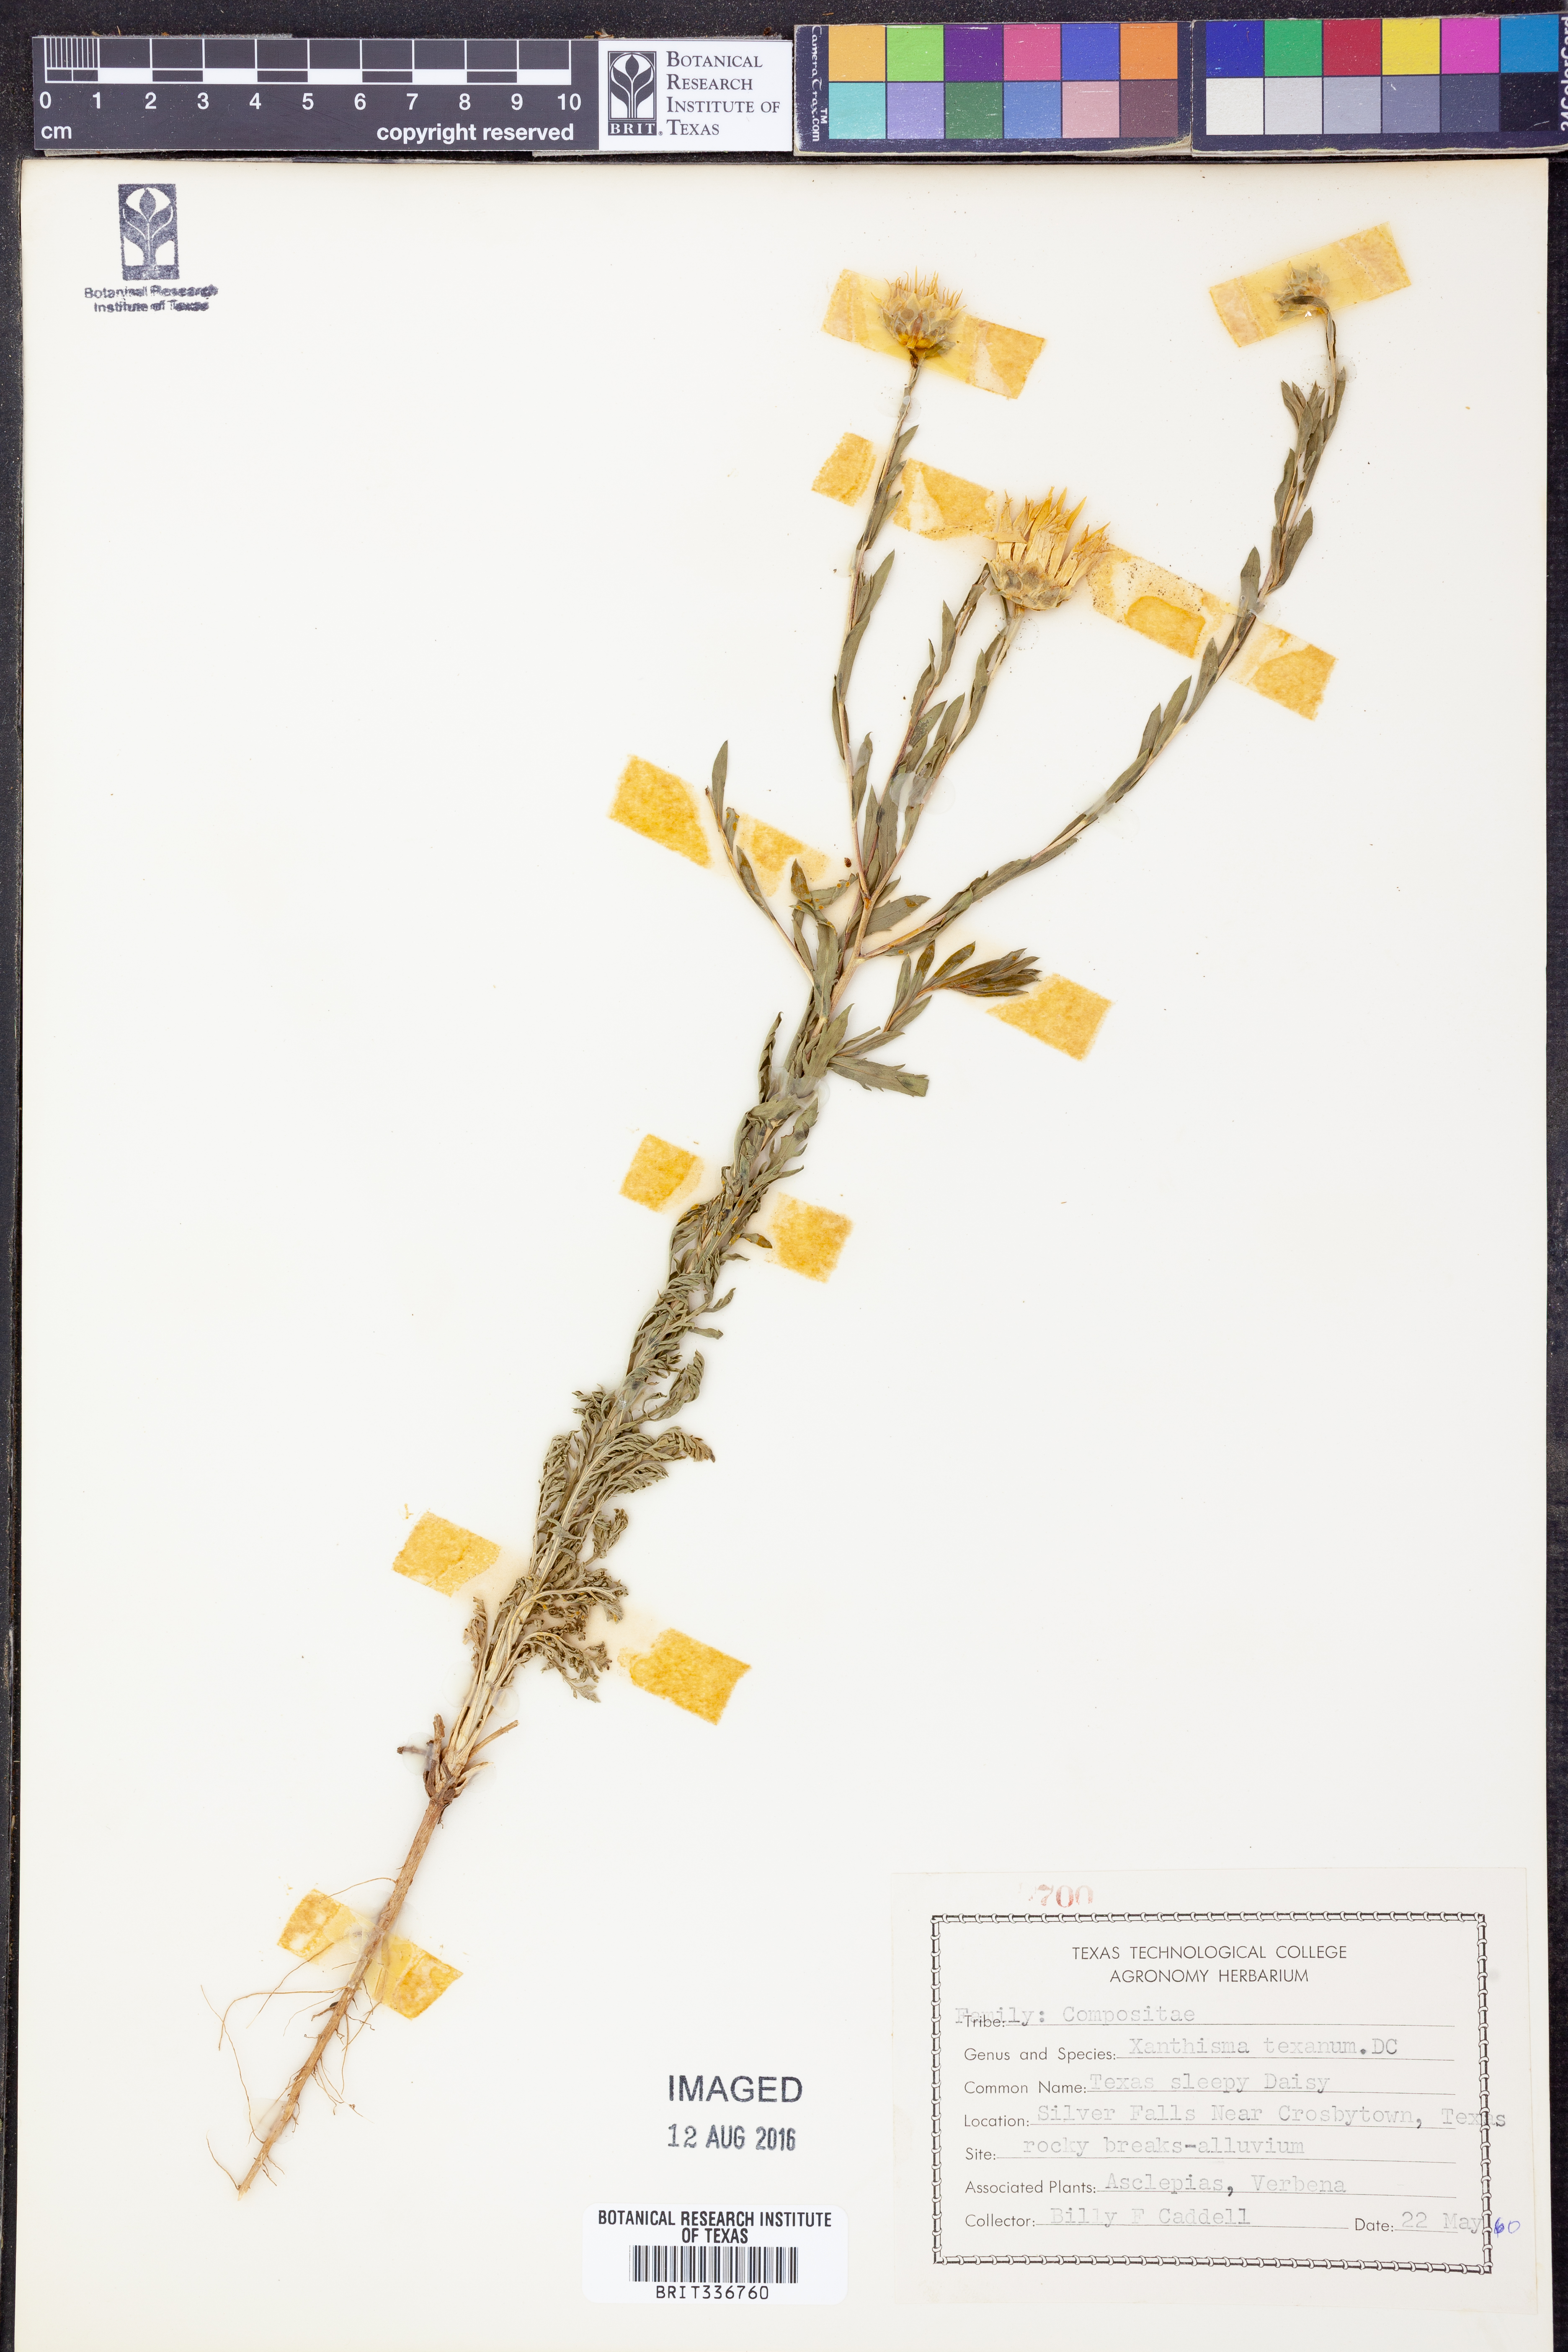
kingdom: Plantae
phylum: Tracheophyta
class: Magnoliopsida
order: Asterales
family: Asteraceae
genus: Xanthisma
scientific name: Xanthisma texanum
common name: Texas sleepy daisy
